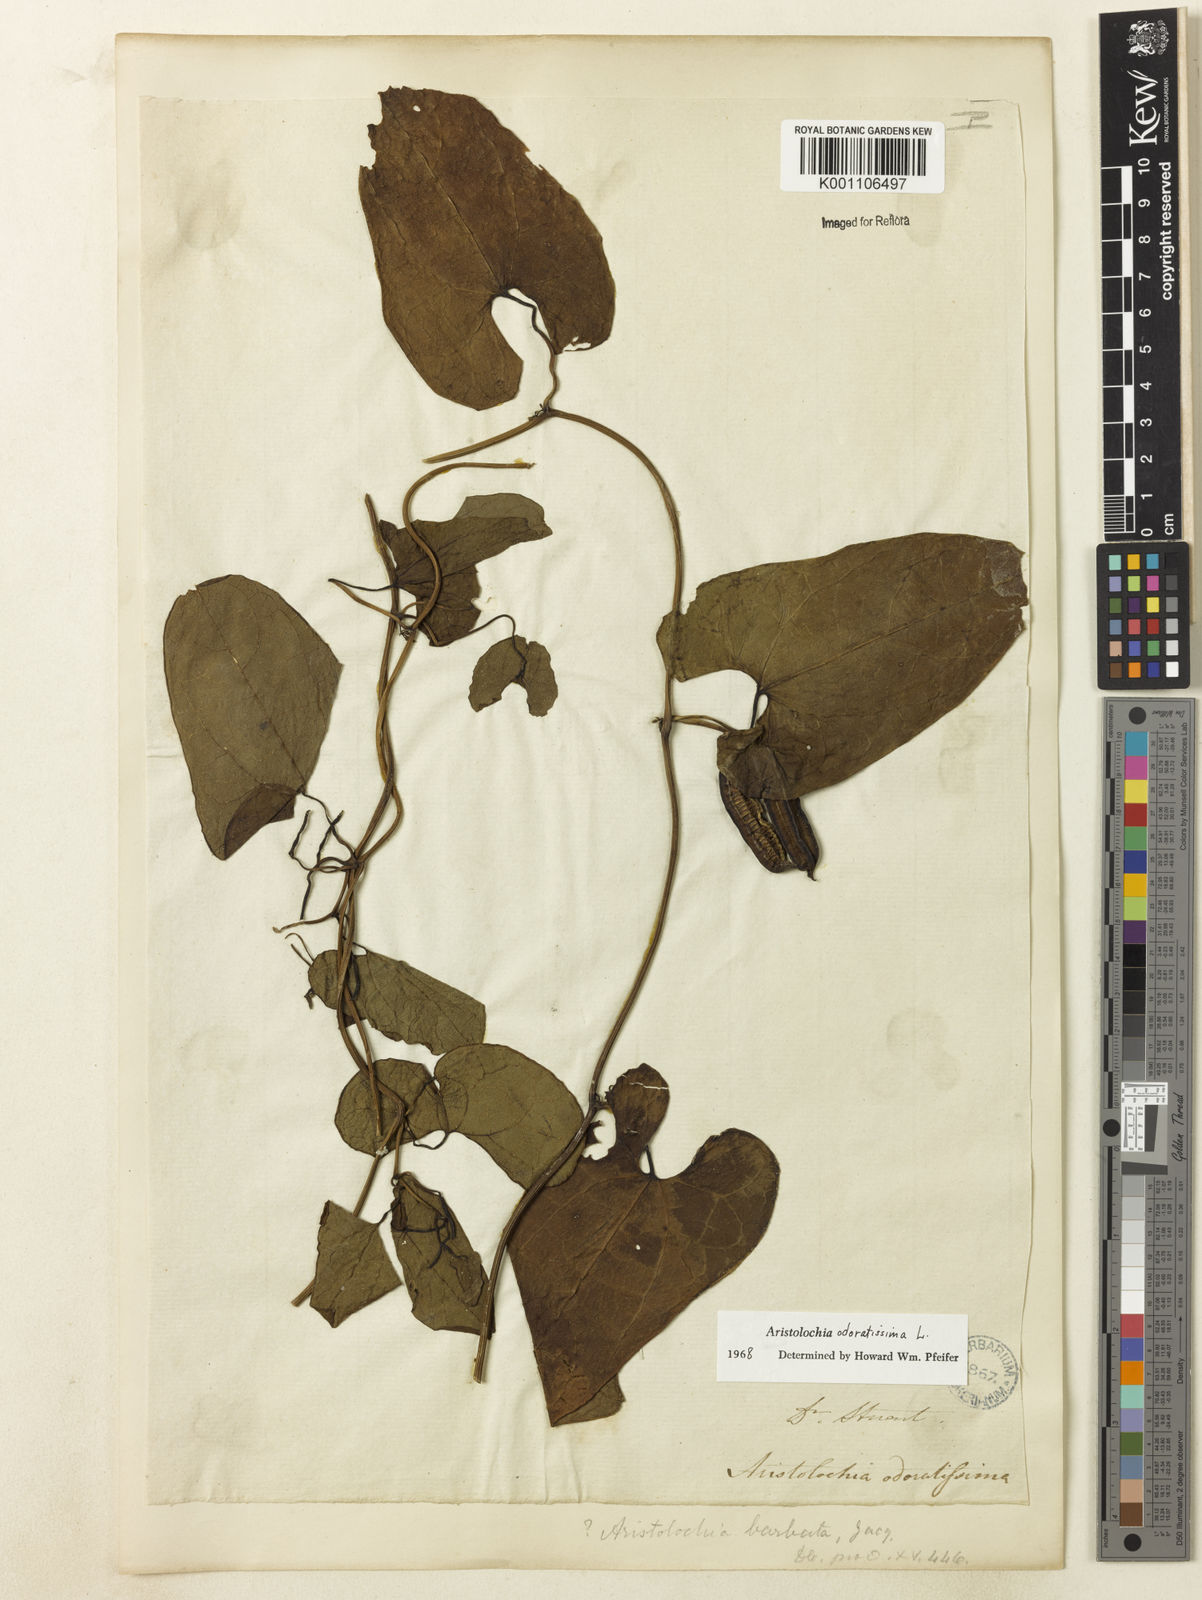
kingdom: Plantae
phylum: Tracheophyta
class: Magnoliopsida
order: Piperales
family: Aristolochiaceae
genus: Aristolochia
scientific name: Aristolochia odoratissima
